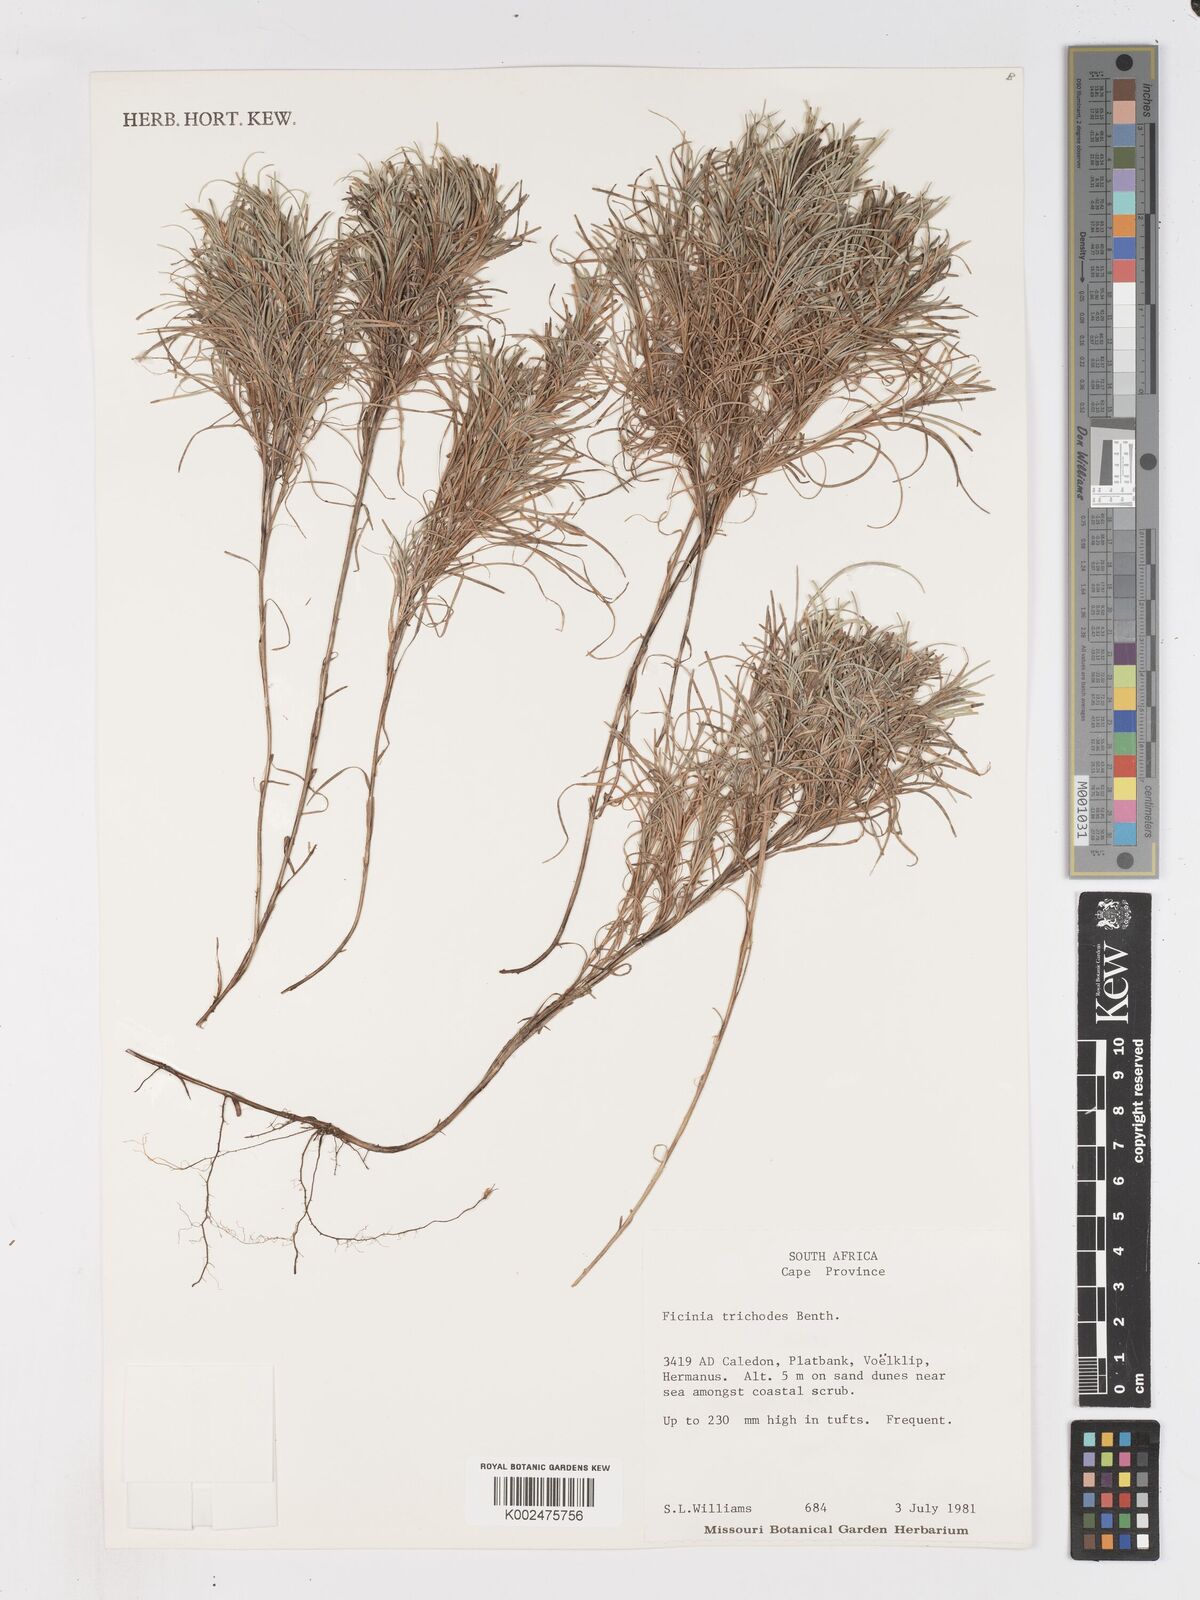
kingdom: Plantae
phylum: Tracheophyta
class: Liliopsida
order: Poales
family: Cyperaceae
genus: Ficinia
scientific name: Ficinia ramosissima
